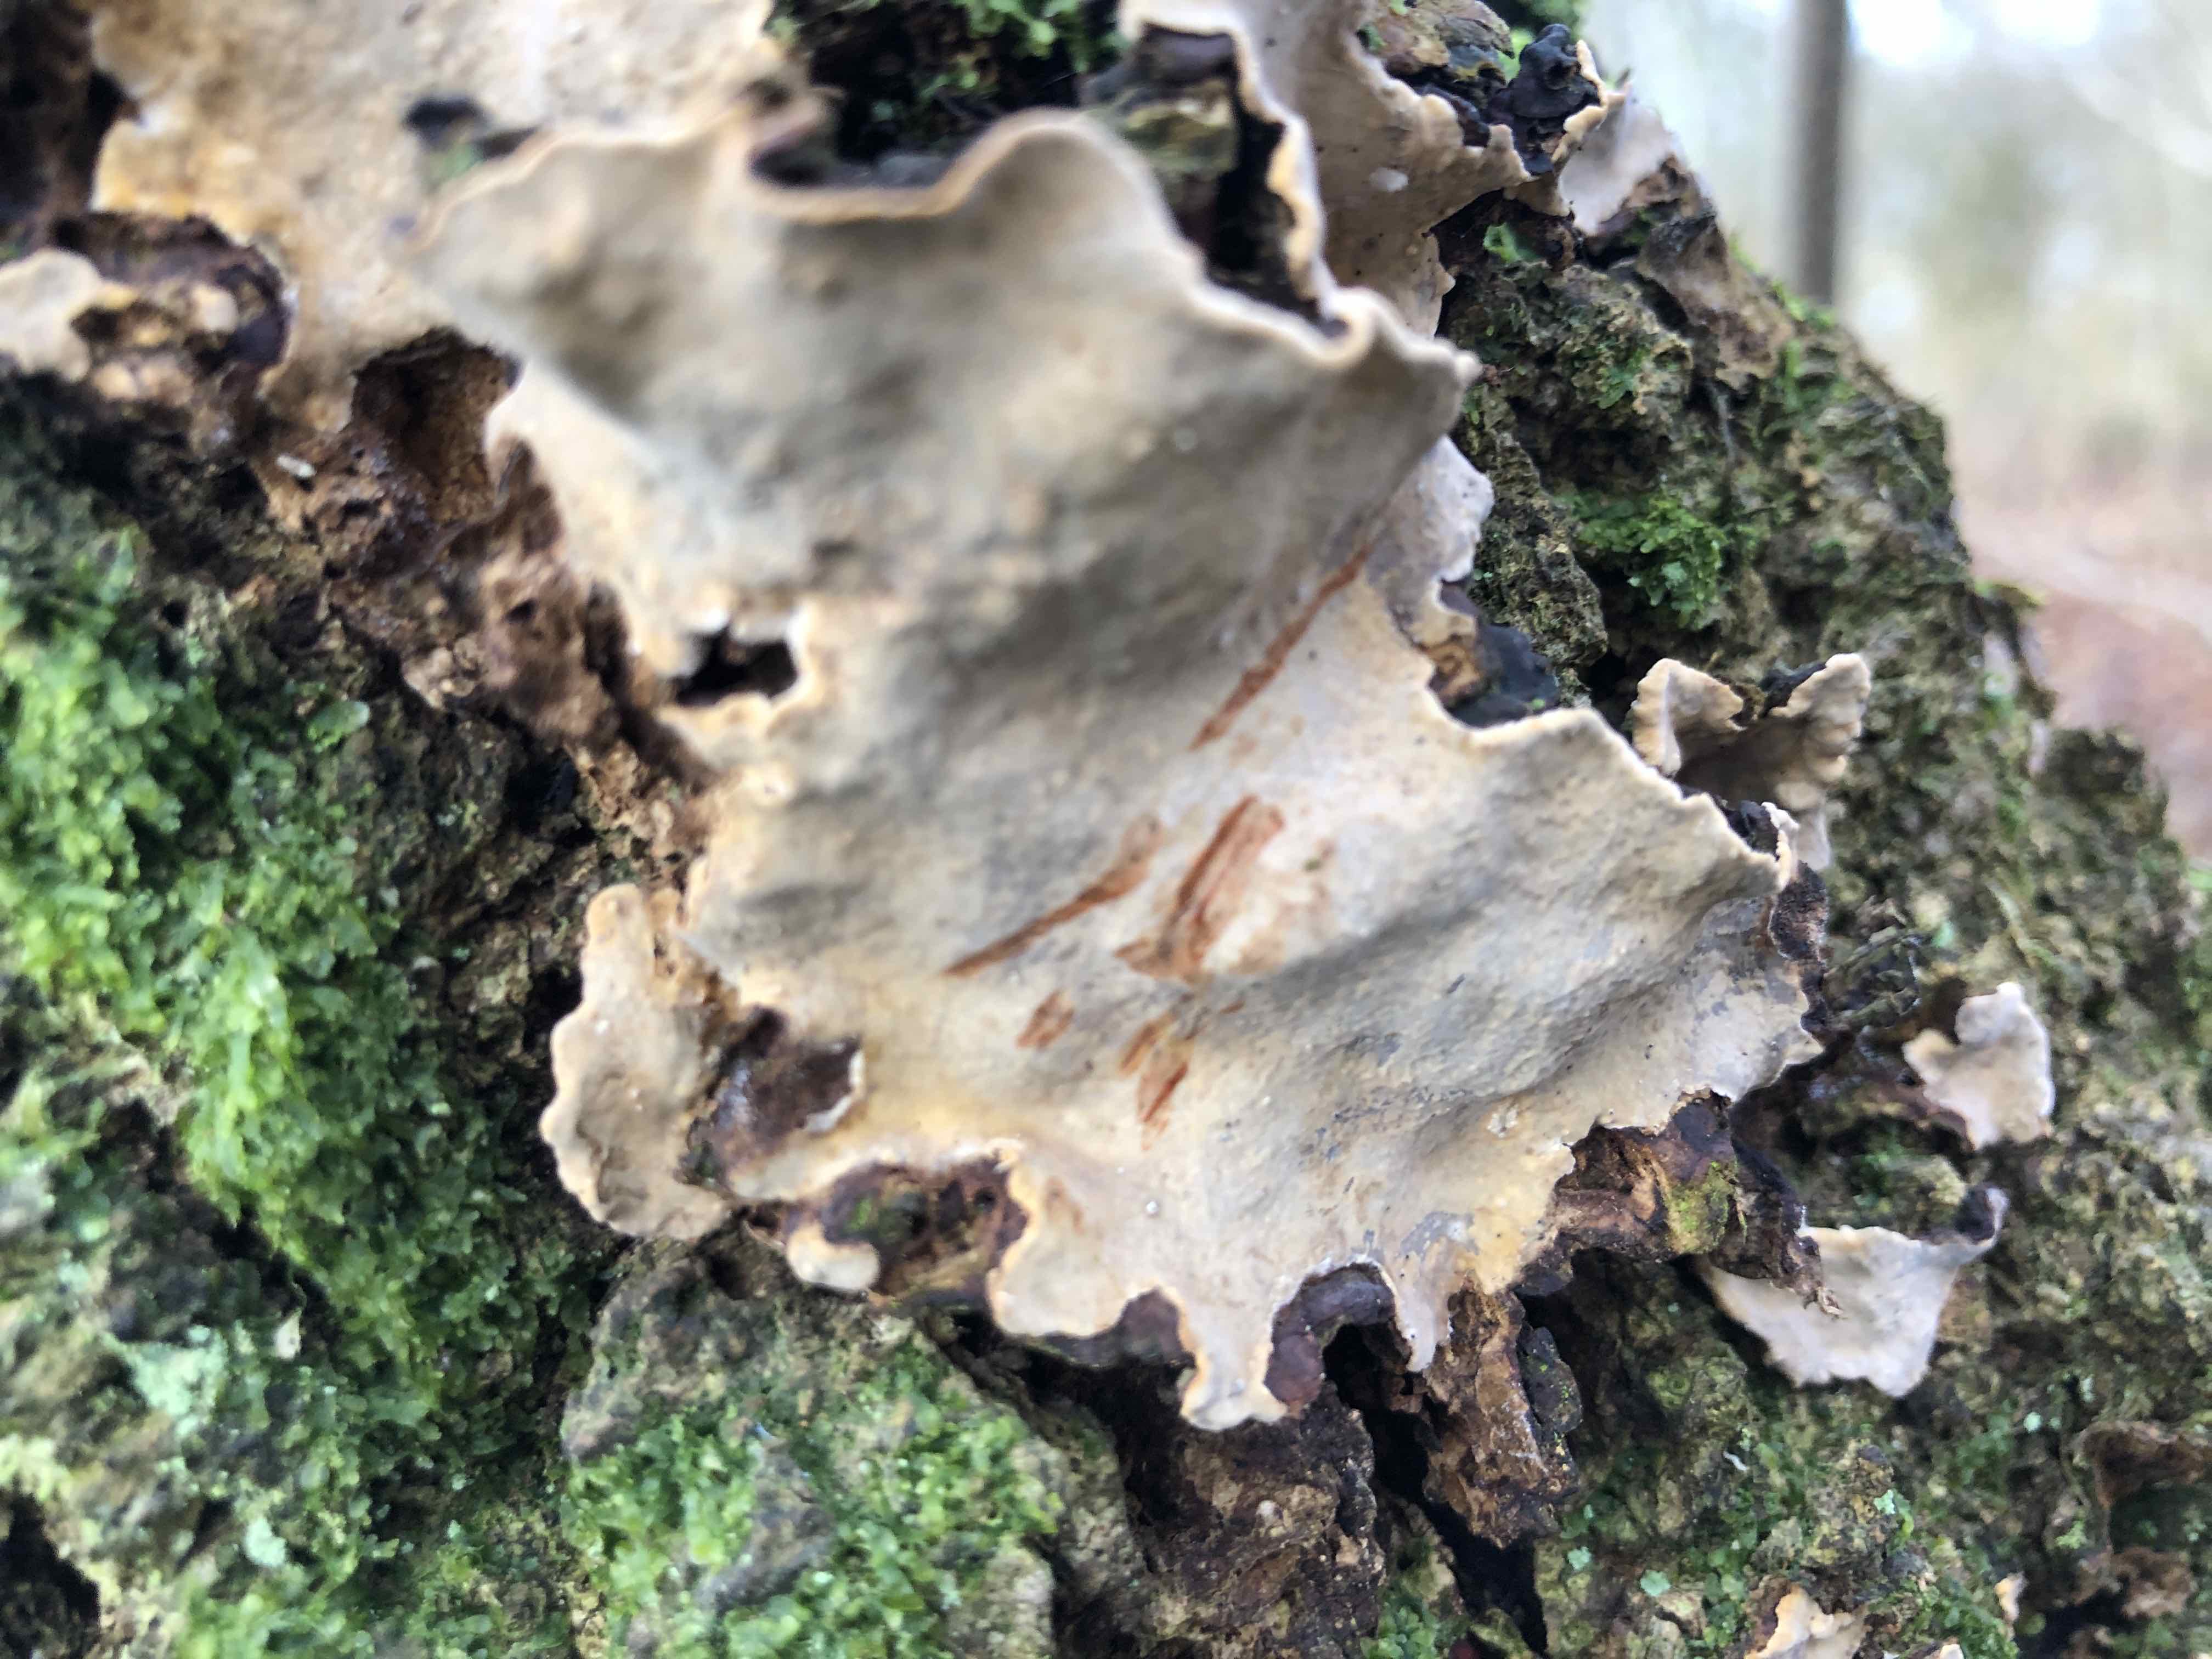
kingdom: Fungi
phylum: Basidiomycota
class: Agaricomycetes
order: Russulales
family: Stereaceae
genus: Stereum
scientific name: Stereum rugosum
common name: rynket lædersvamp
